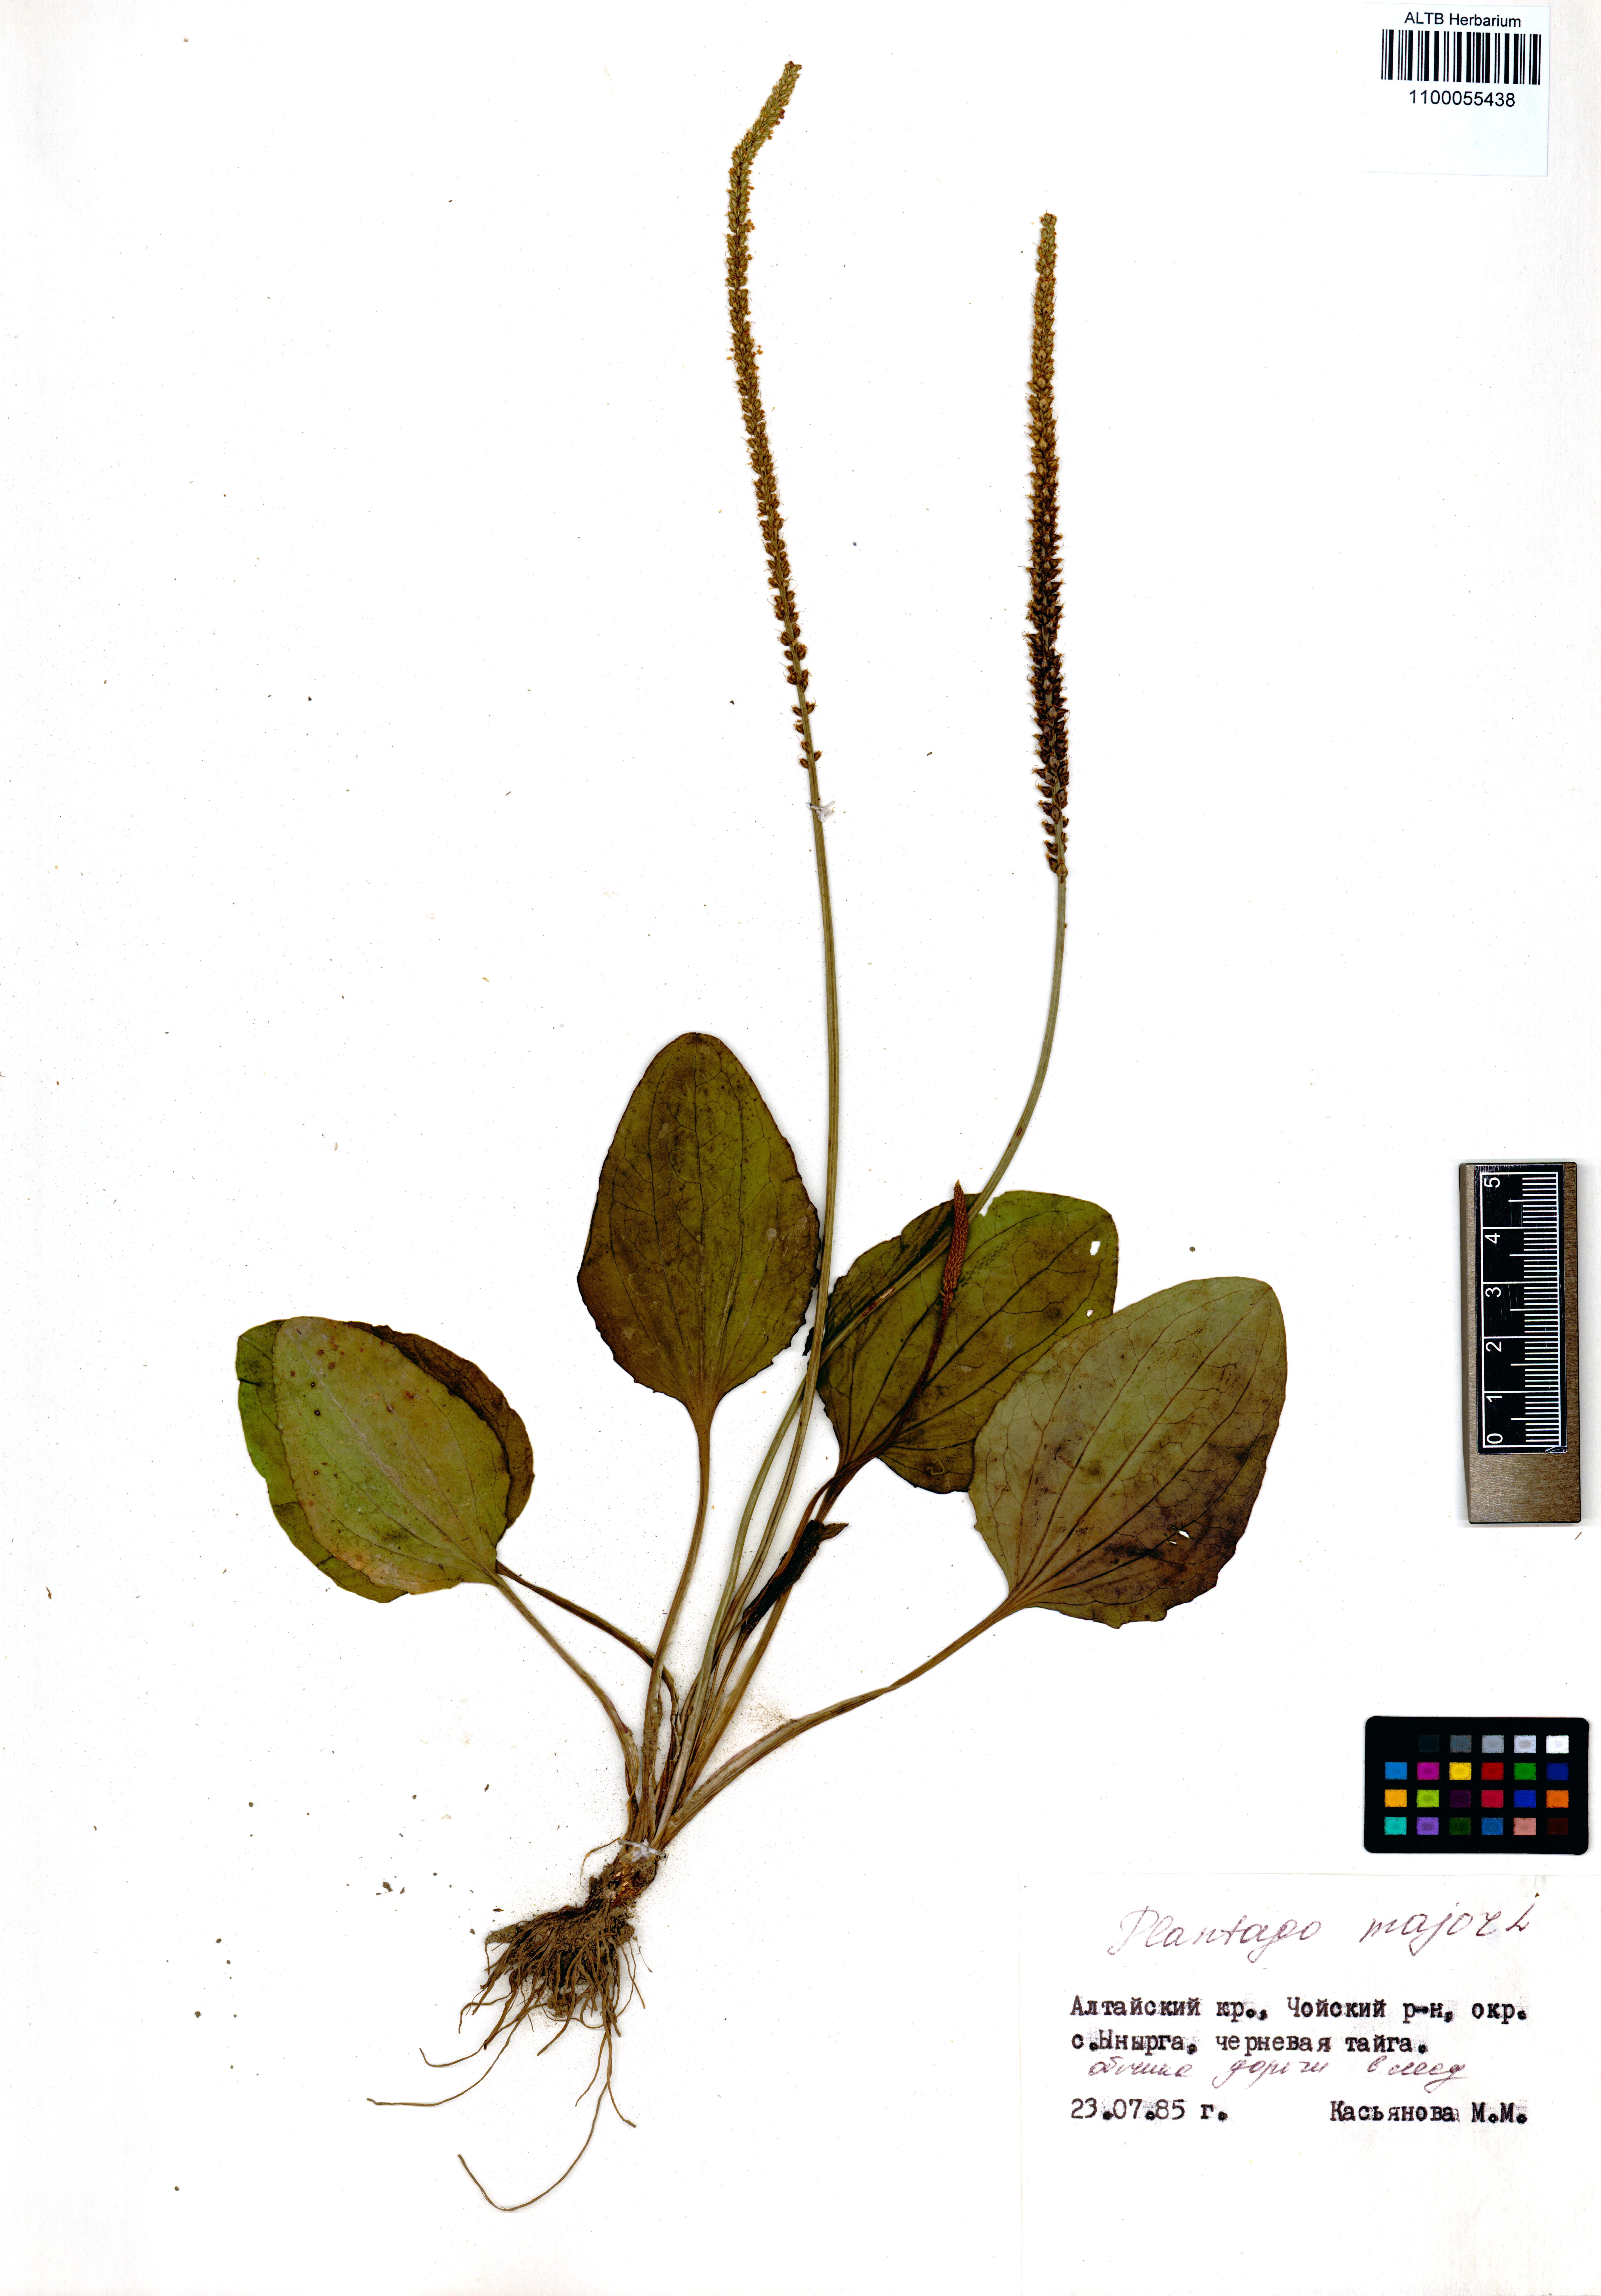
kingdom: Plantae
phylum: Tracheophyta
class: Magnoliopsida
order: Lamiales
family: Plantaginaceae
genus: Plantago
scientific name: Plantago major
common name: Common plantain
